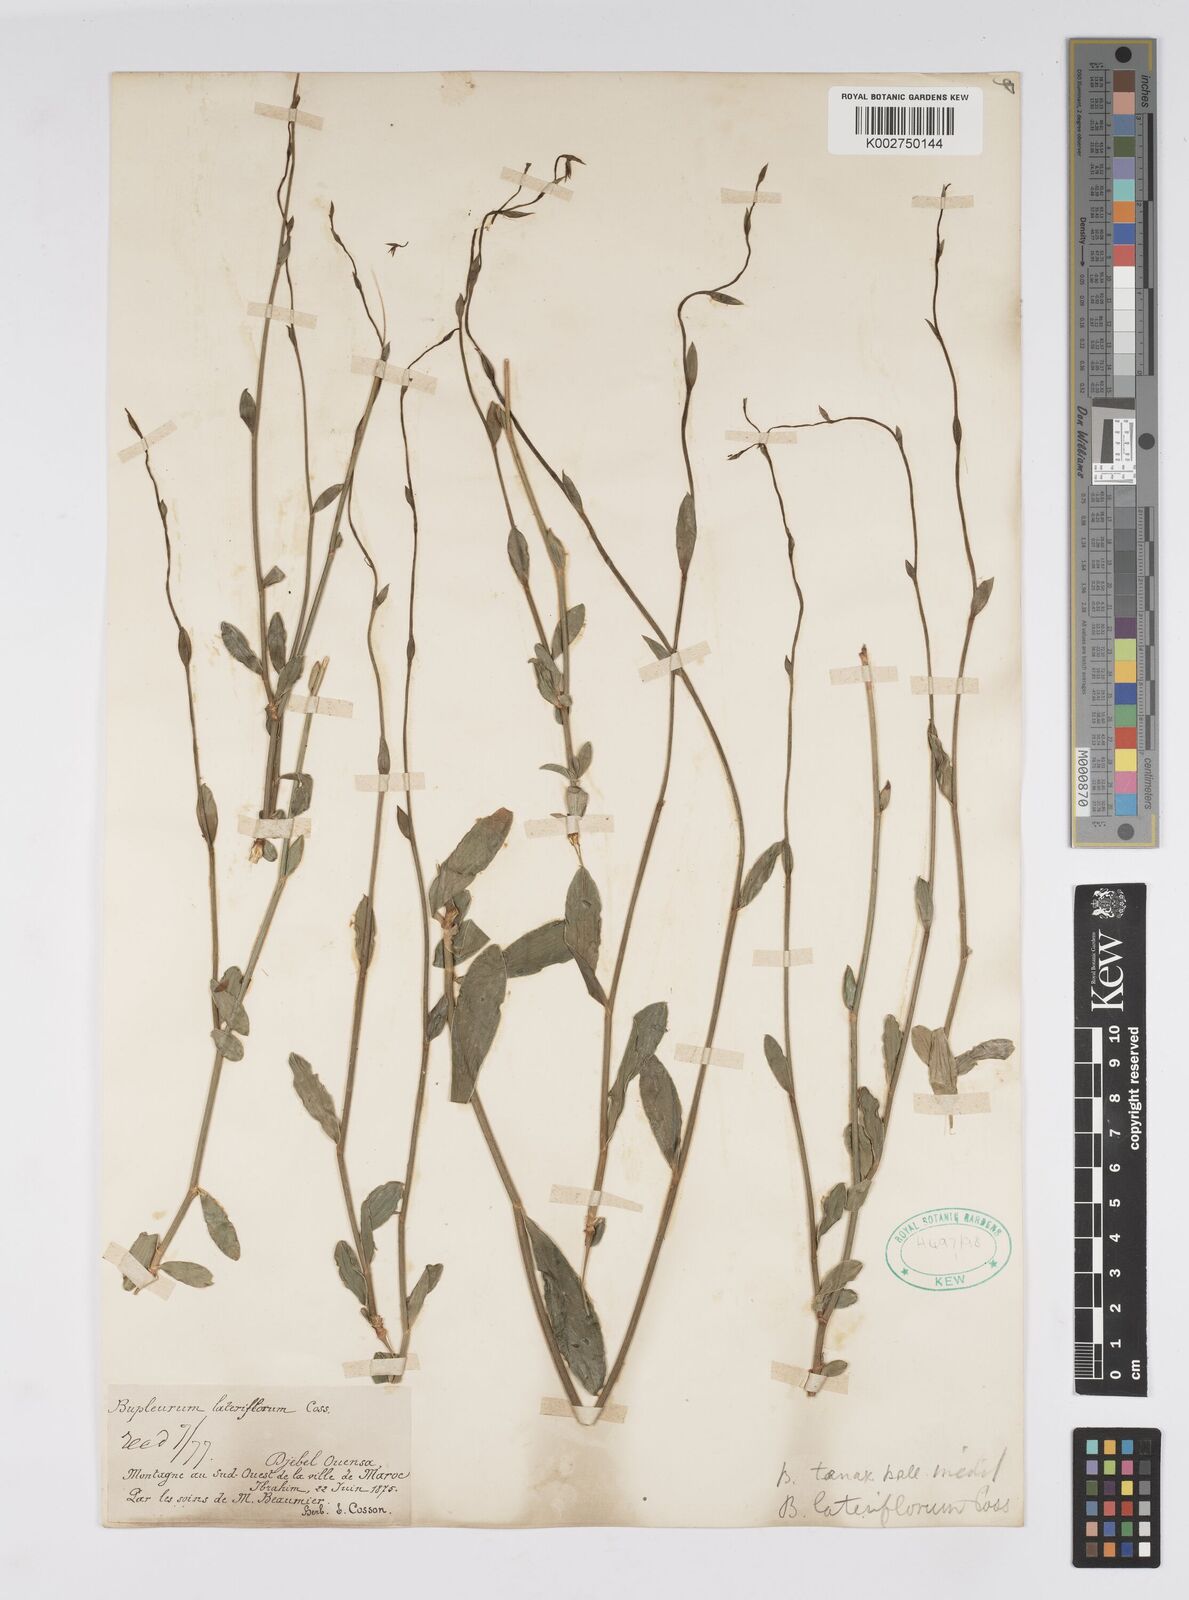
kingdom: Plantae
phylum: Tracheophyta
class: Magnoliopsida
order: Apiales
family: Apiaceae
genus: Bupleurum
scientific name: Bupleurum lateriflorum
